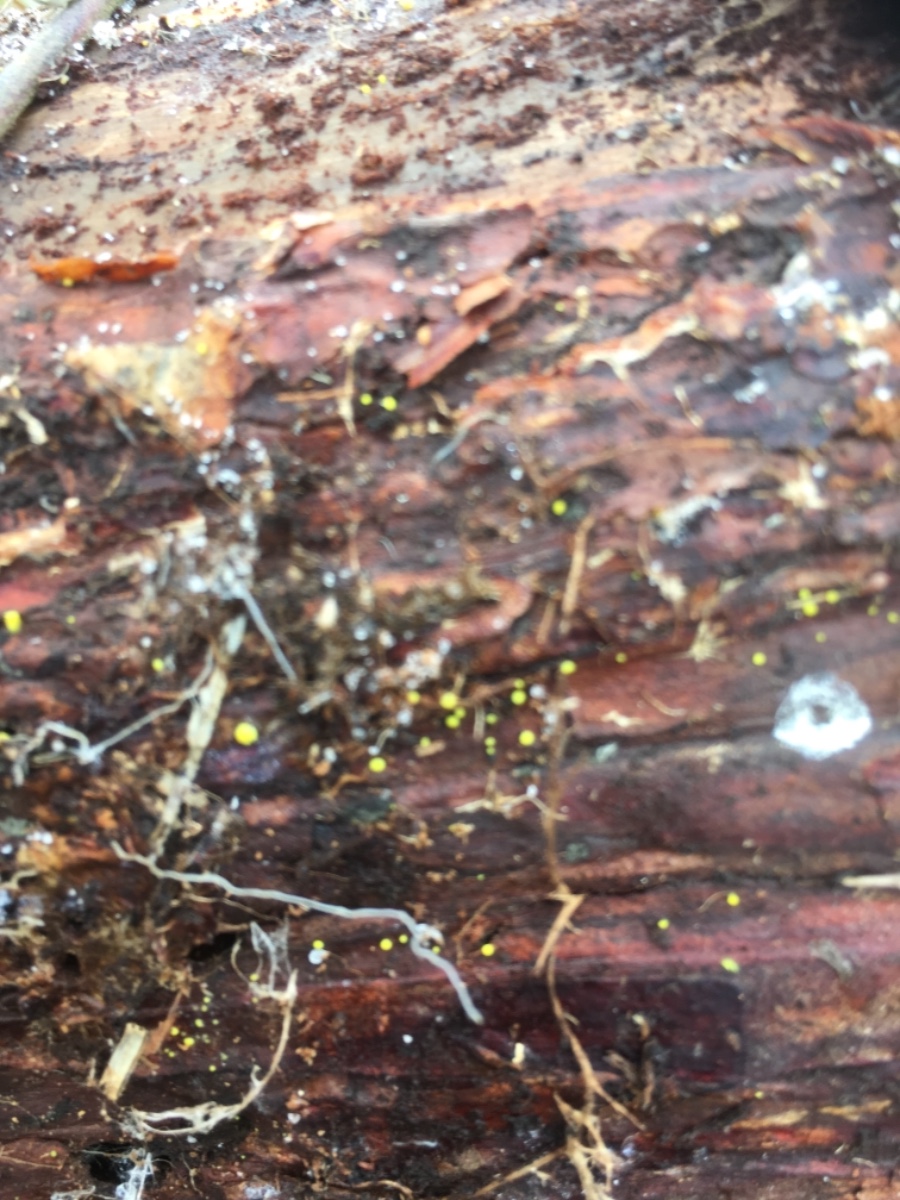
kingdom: Fungi
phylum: Ascomycota
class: Leotiomycetes
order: Helotiales
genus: Lemalis
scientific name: Lemalis aurea
